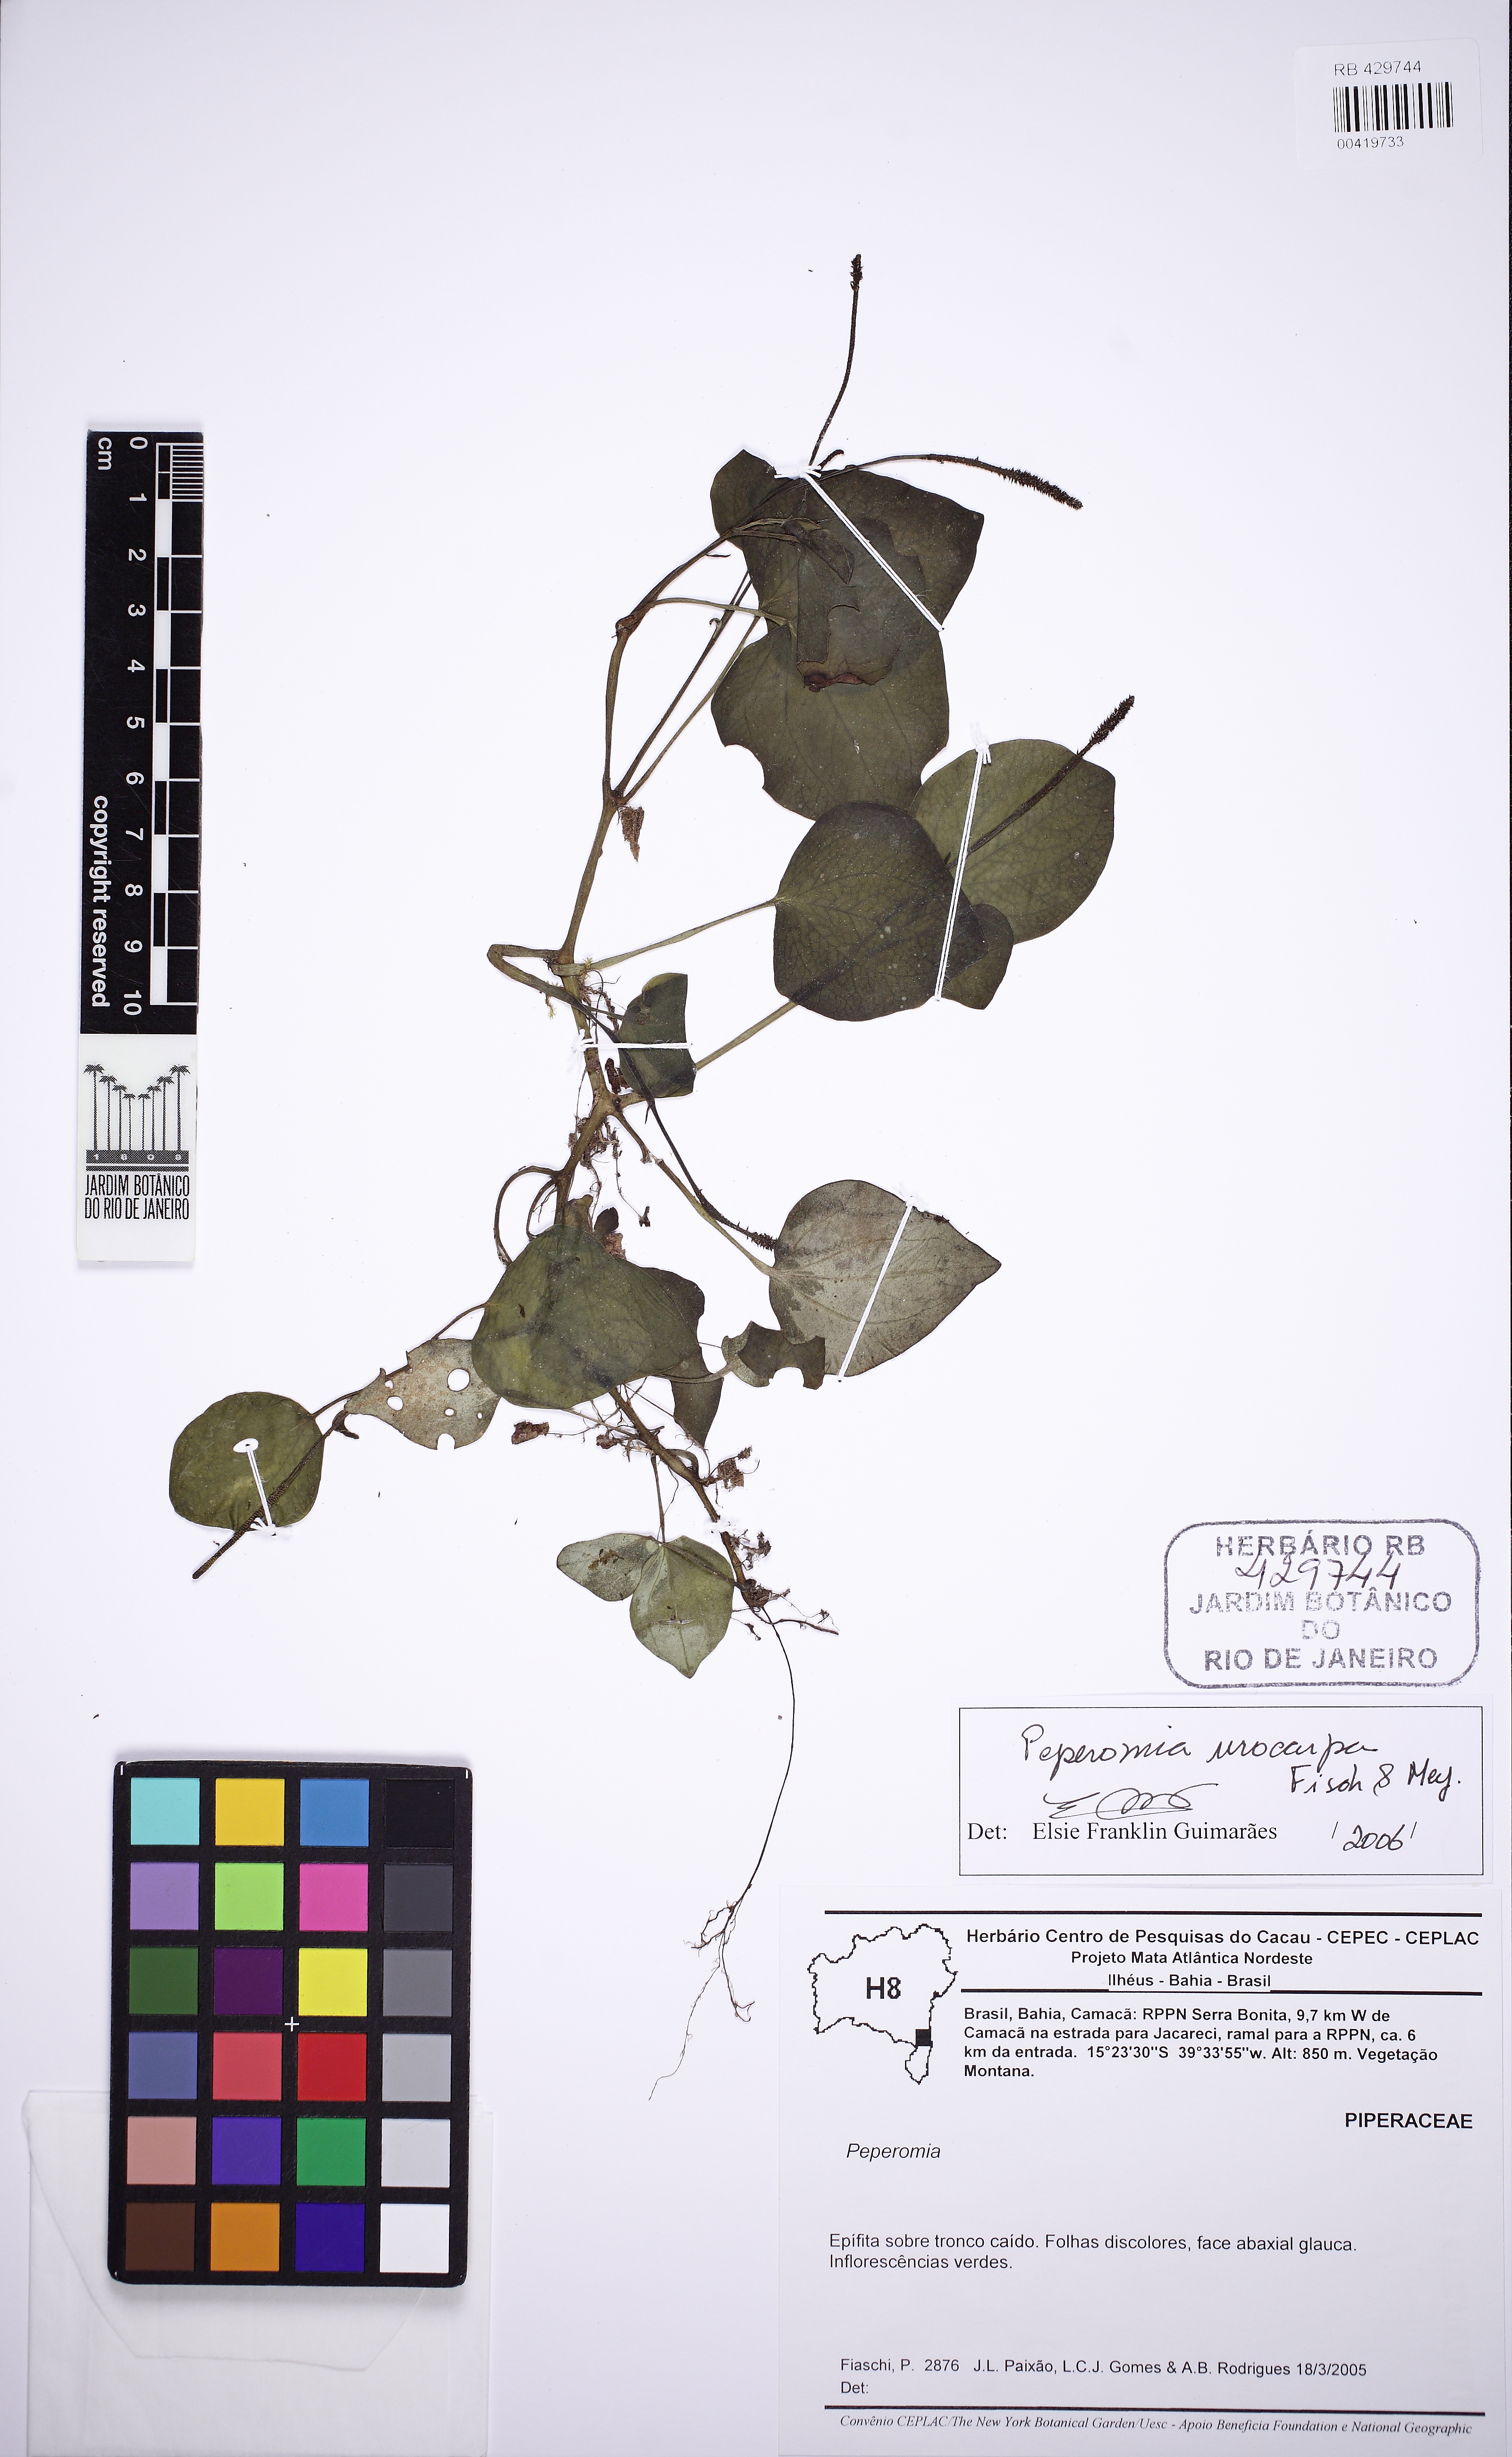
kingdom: Plantae
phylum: Tracheophyta
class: Magnoliopsida
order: Piperales
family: Piperaceae
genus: Peperomia
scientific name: Peperomia urocarpa
